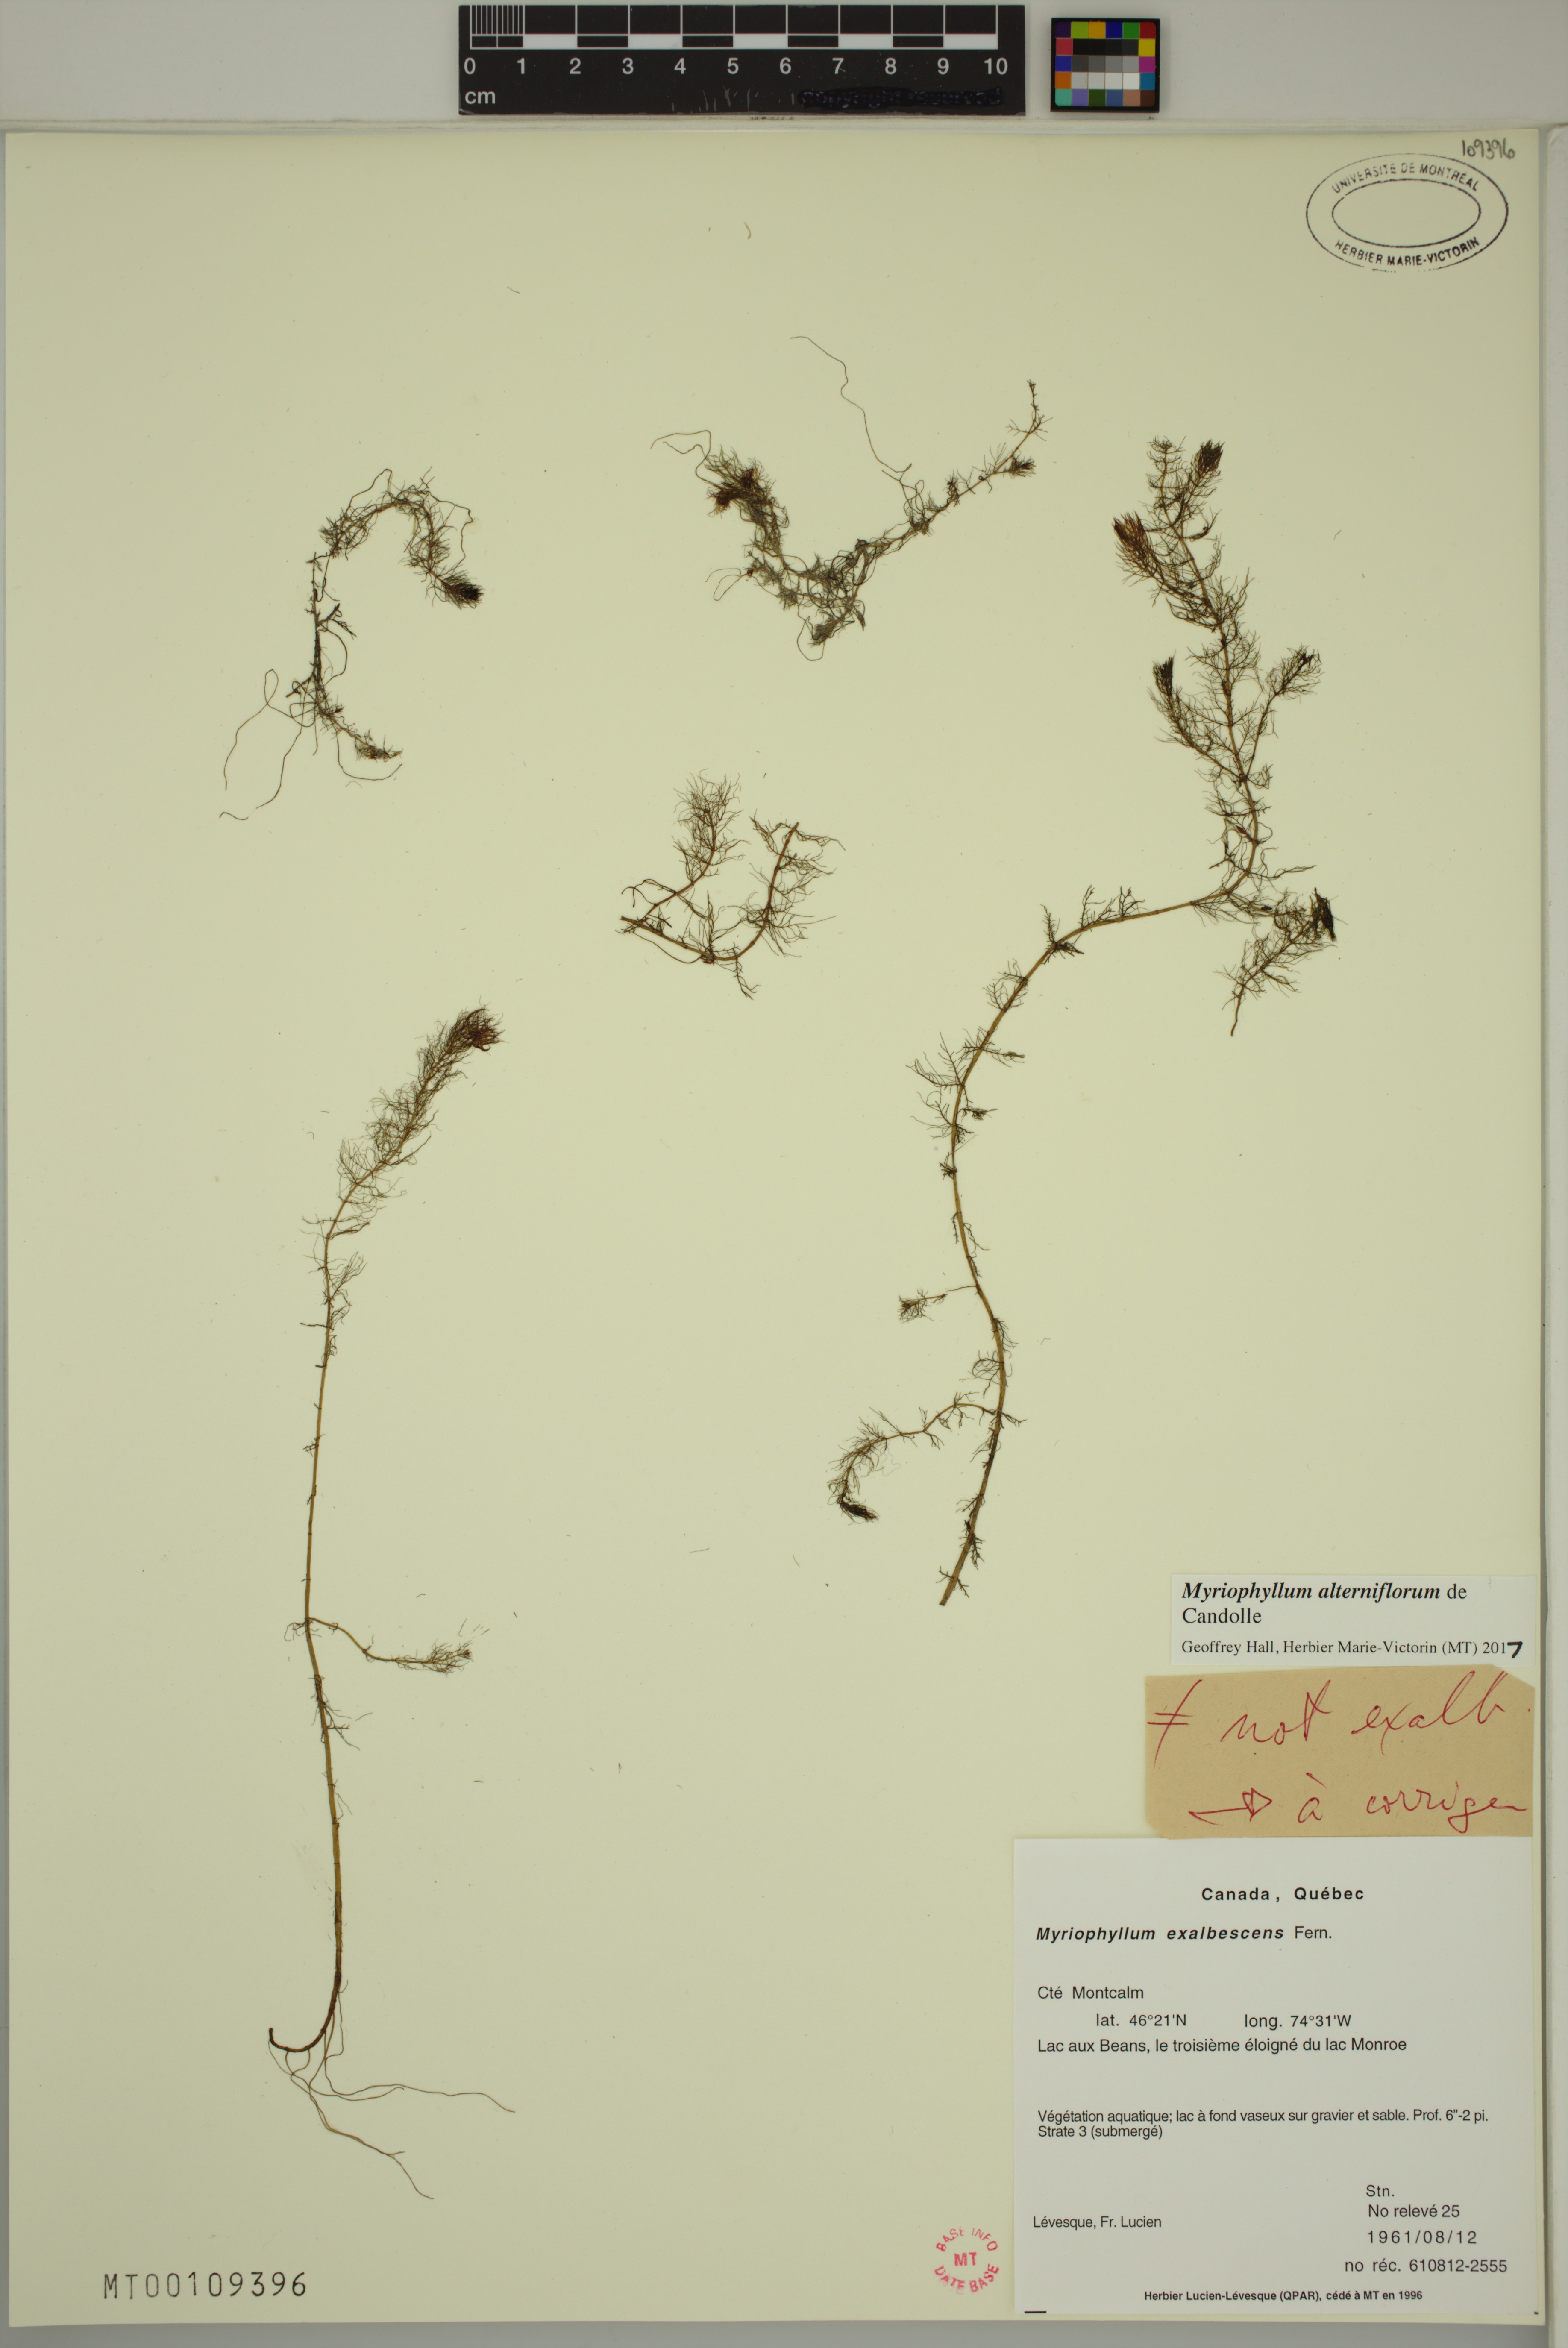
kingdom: Plantae
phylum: Tracheophyta
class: Magnoliopsida
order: Saxifragales
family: Haloragaceae
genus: Myriophyllum
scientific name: Myriophyllum alterniflorum
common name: Alternate water-milfoil
